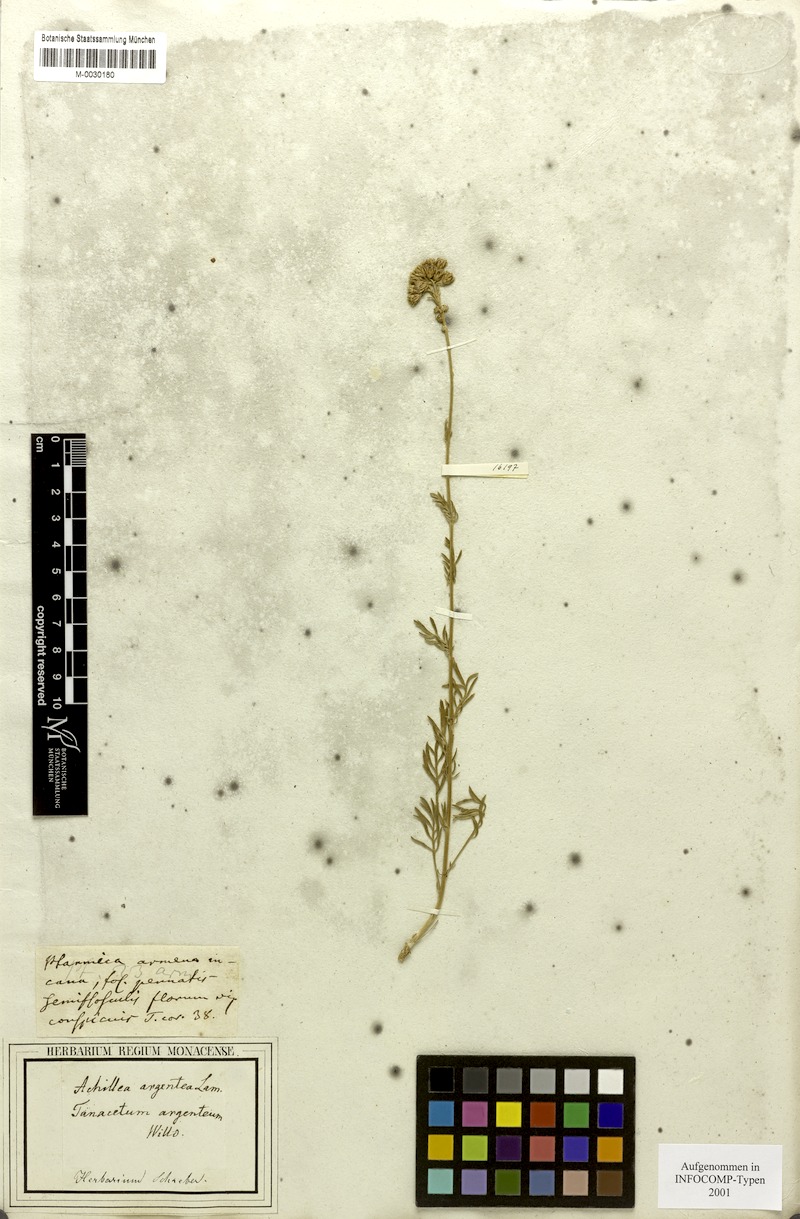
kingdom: Plantae
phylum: Tracheophyta
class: Magnoliopsida
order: Asterales
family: Asteraceae
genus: Tanacetum
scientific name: Tanacetum argenteum
